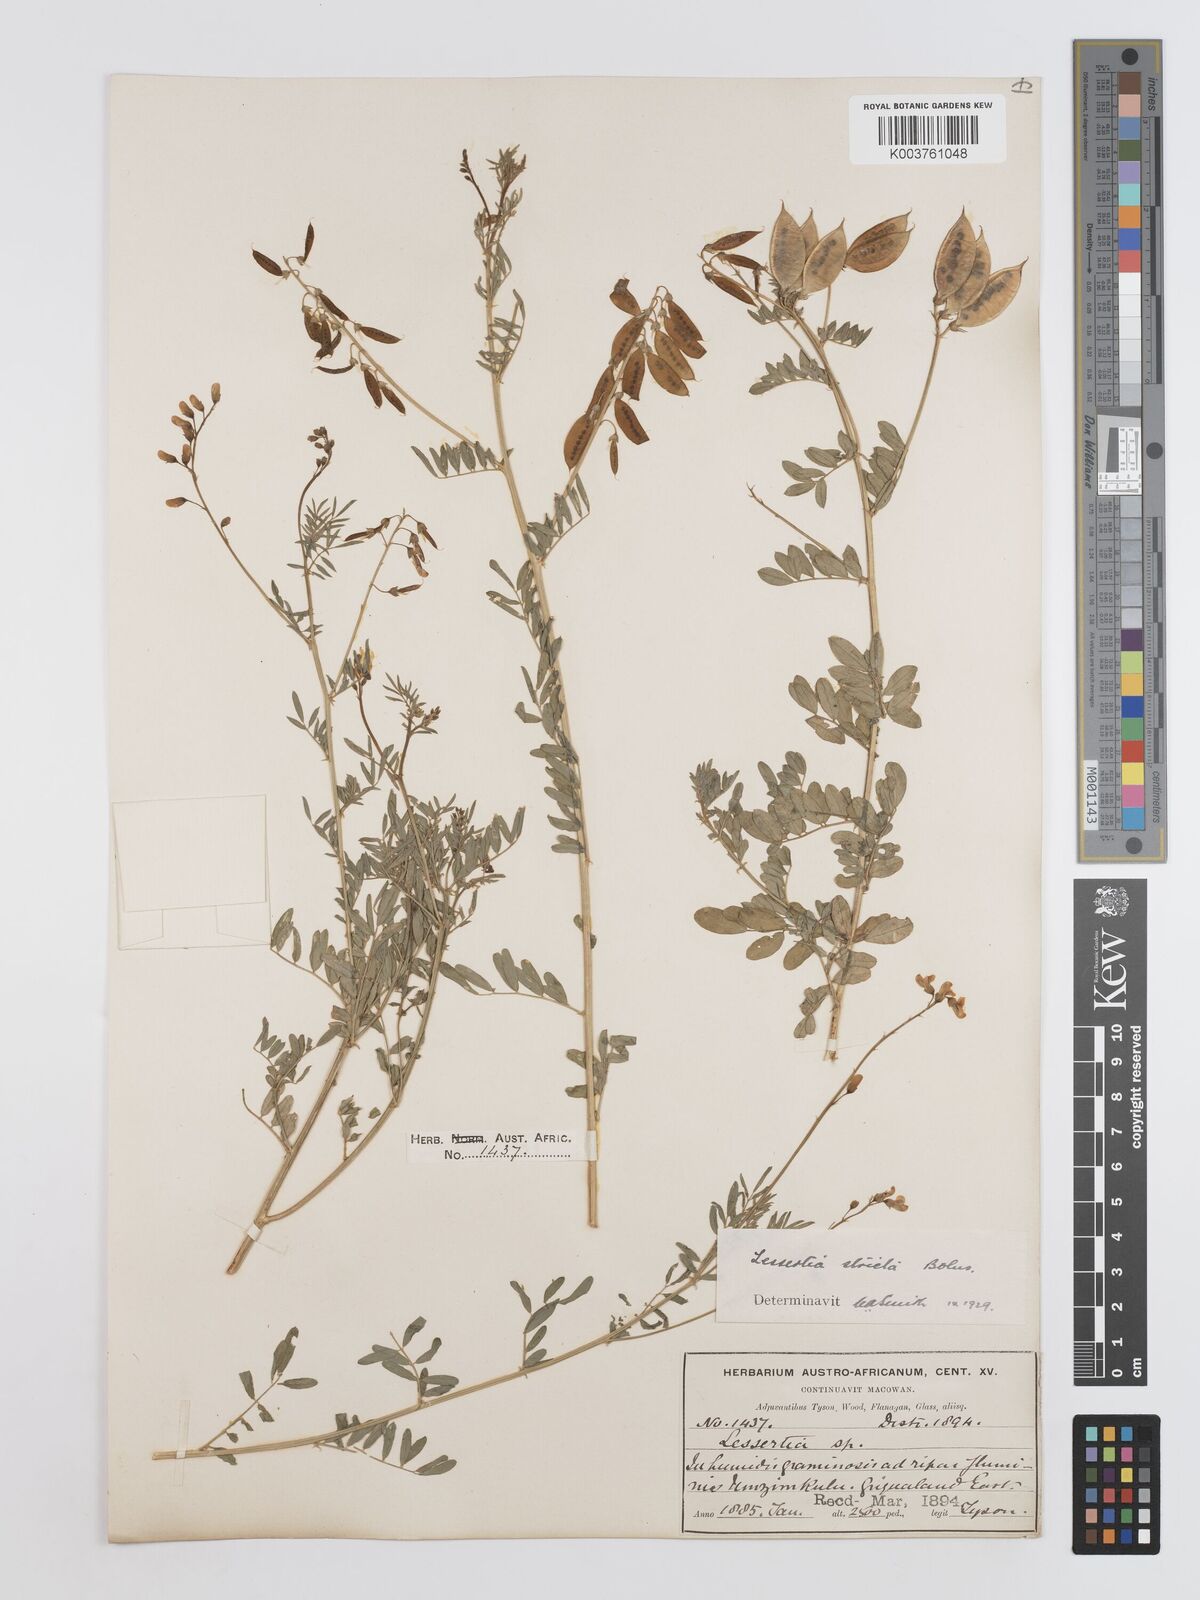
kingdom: Plantae
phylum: Tracheophyta
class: Magnoliopsida
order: Fabales
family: Fabaceae
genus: Lessertia
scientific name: Lessertia stricta
